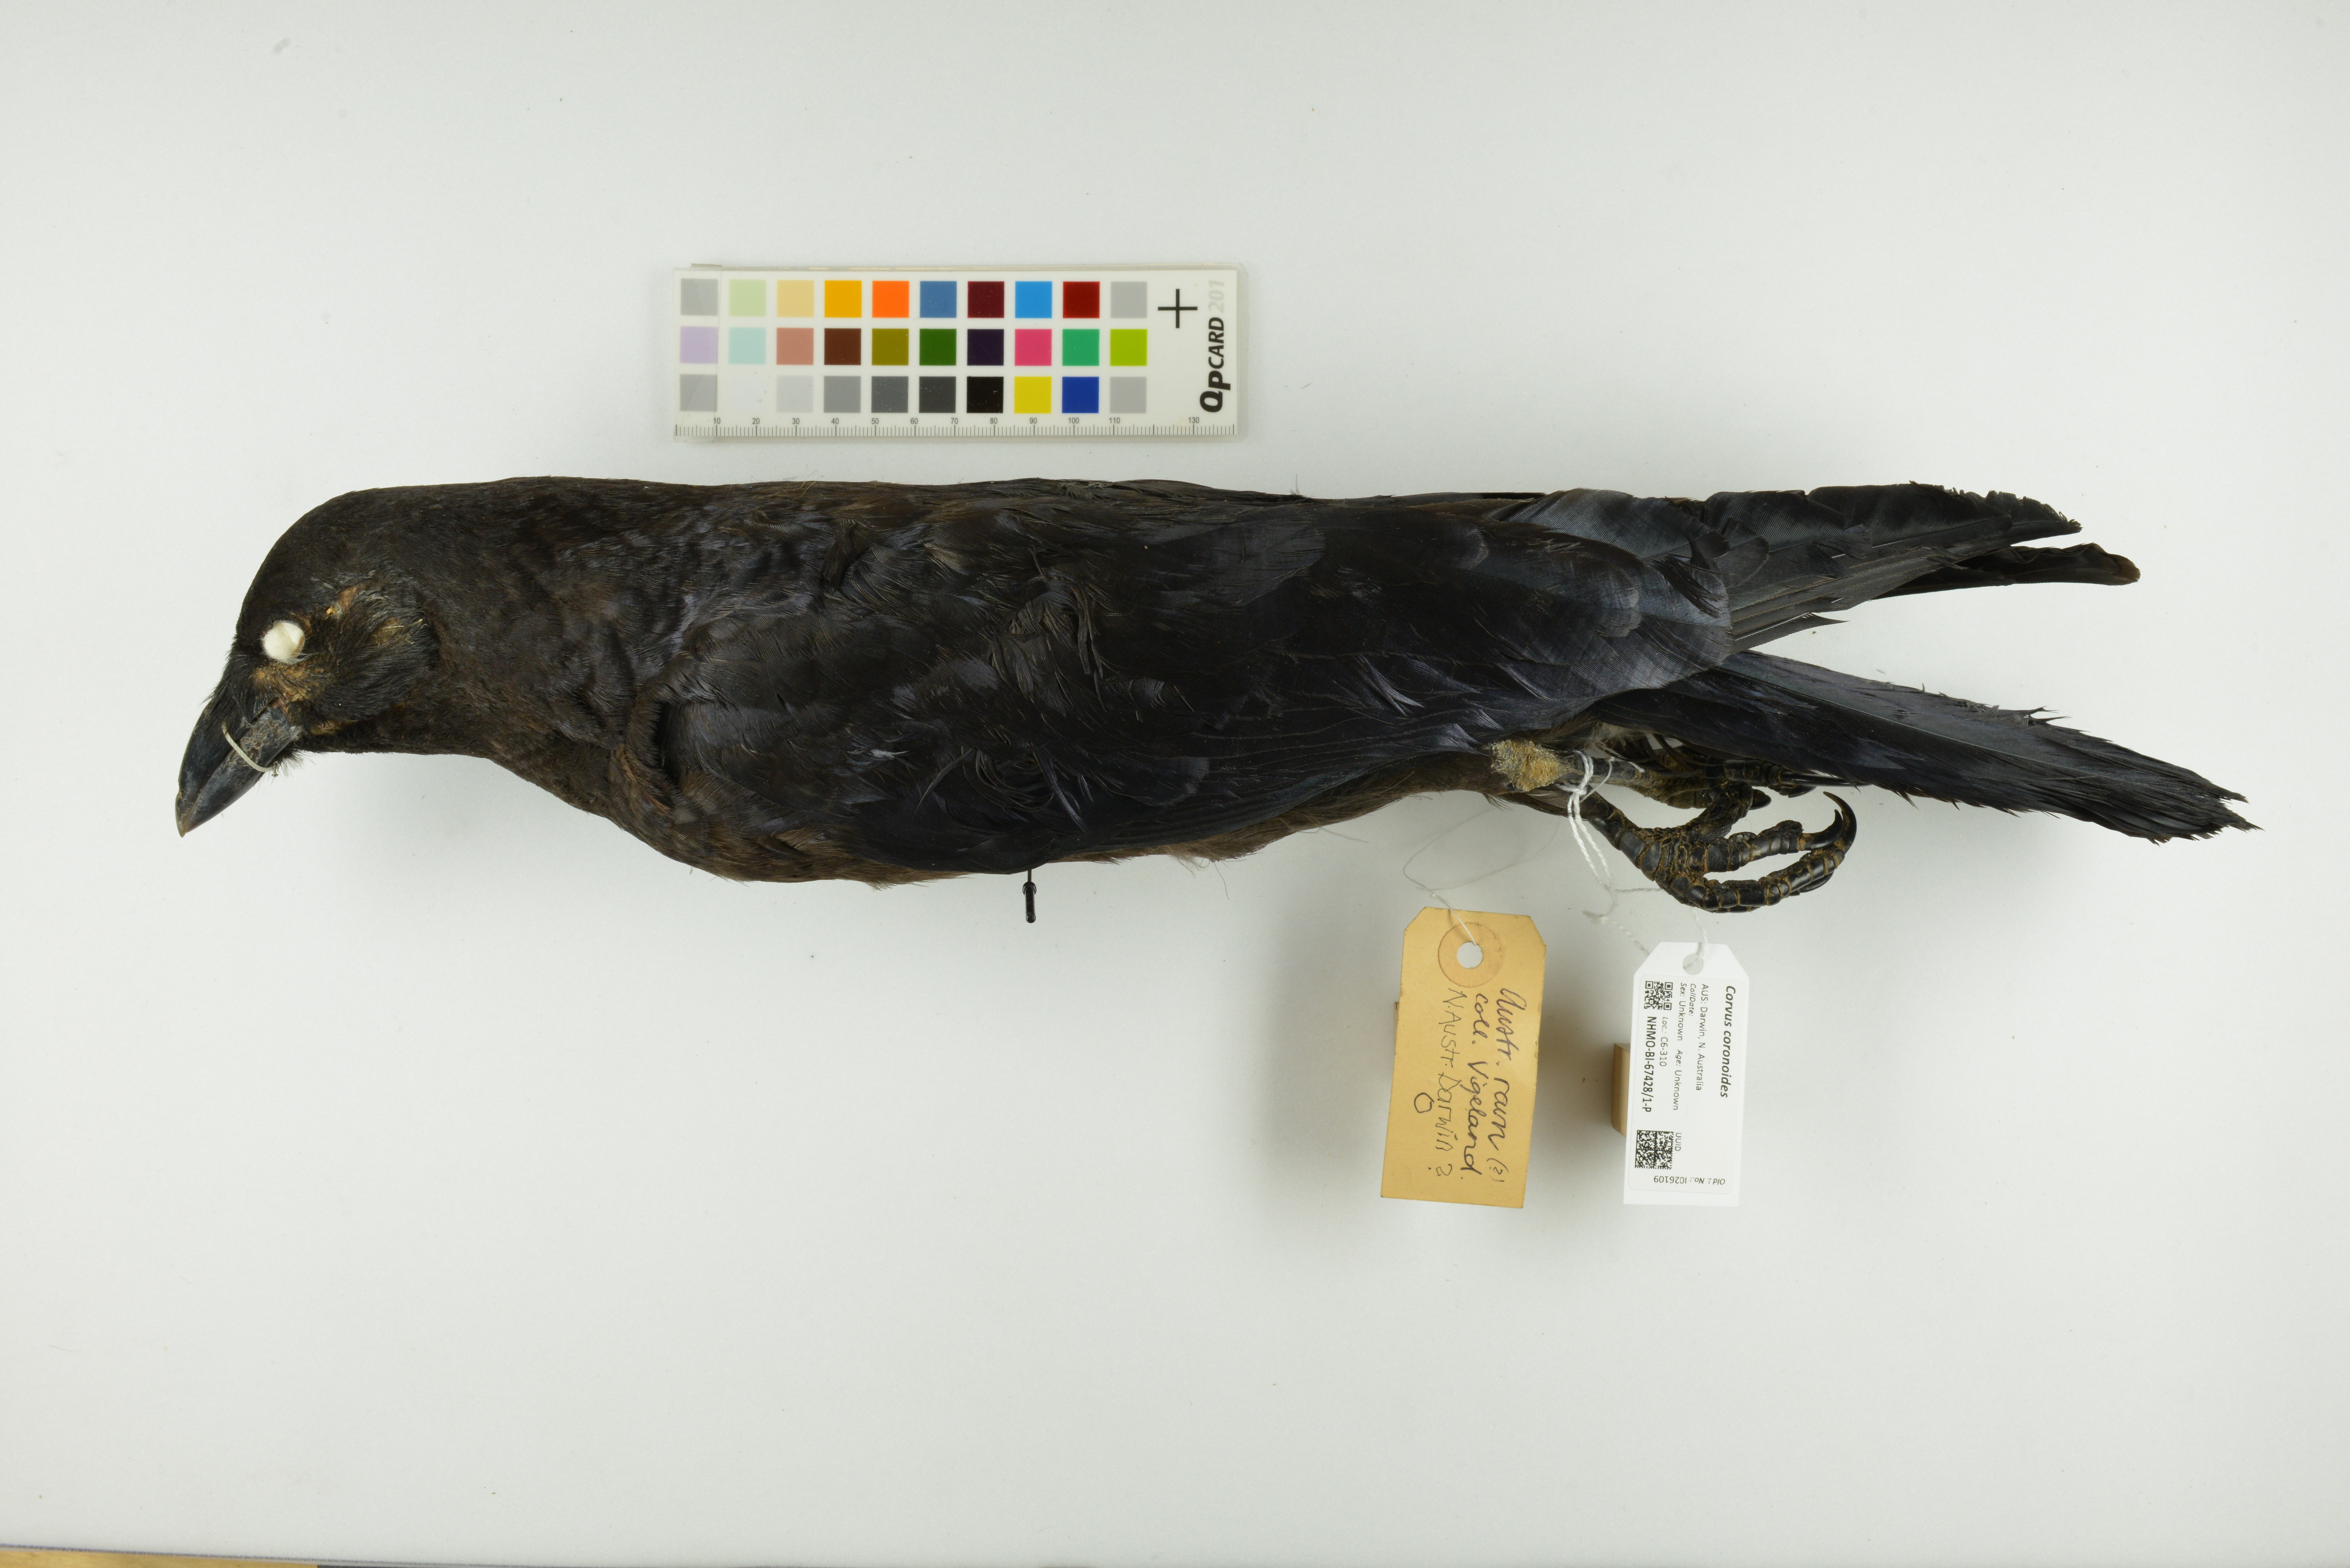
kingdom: Animalia
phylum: Chordata
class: Aves
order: Passeriformes
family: Corvidae
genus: Corvus
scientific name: Corvus coronoides
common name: Australian raven
